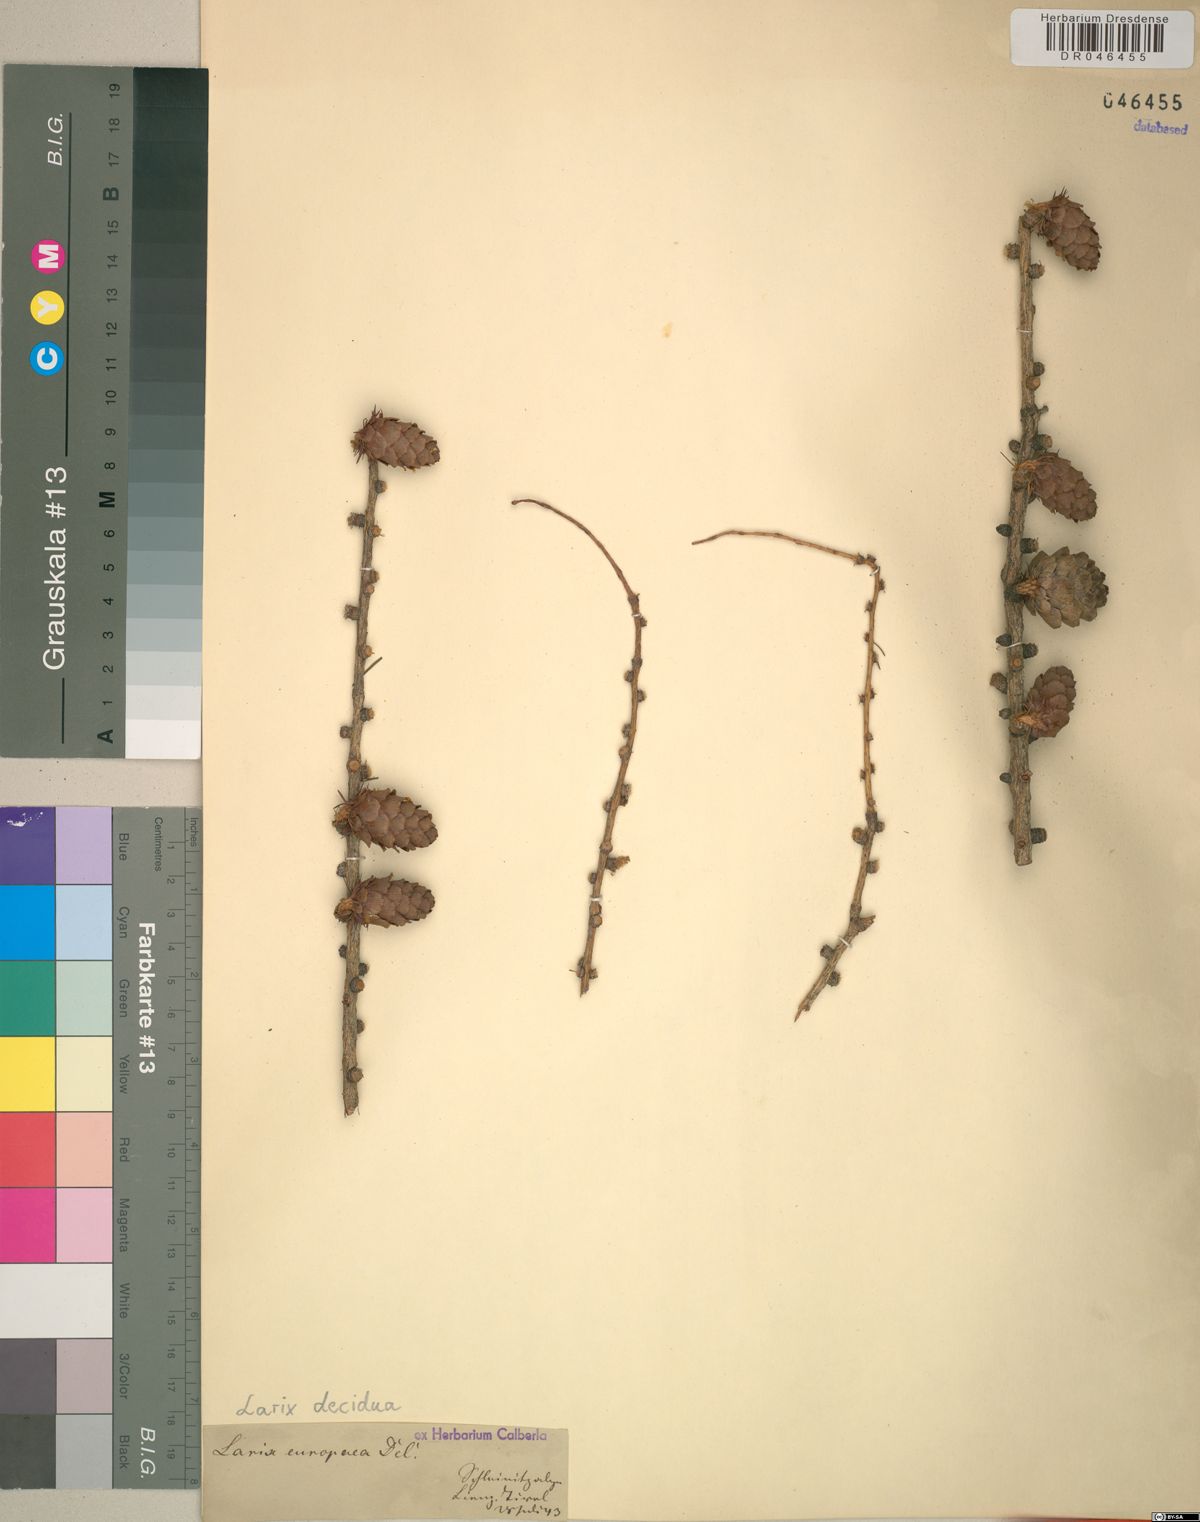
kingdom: Plantae
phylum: Tracheophyta
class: Pinopsida
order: Pinales
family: Pinaceae
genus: Larix
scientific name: Larix decidua
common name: European larch
